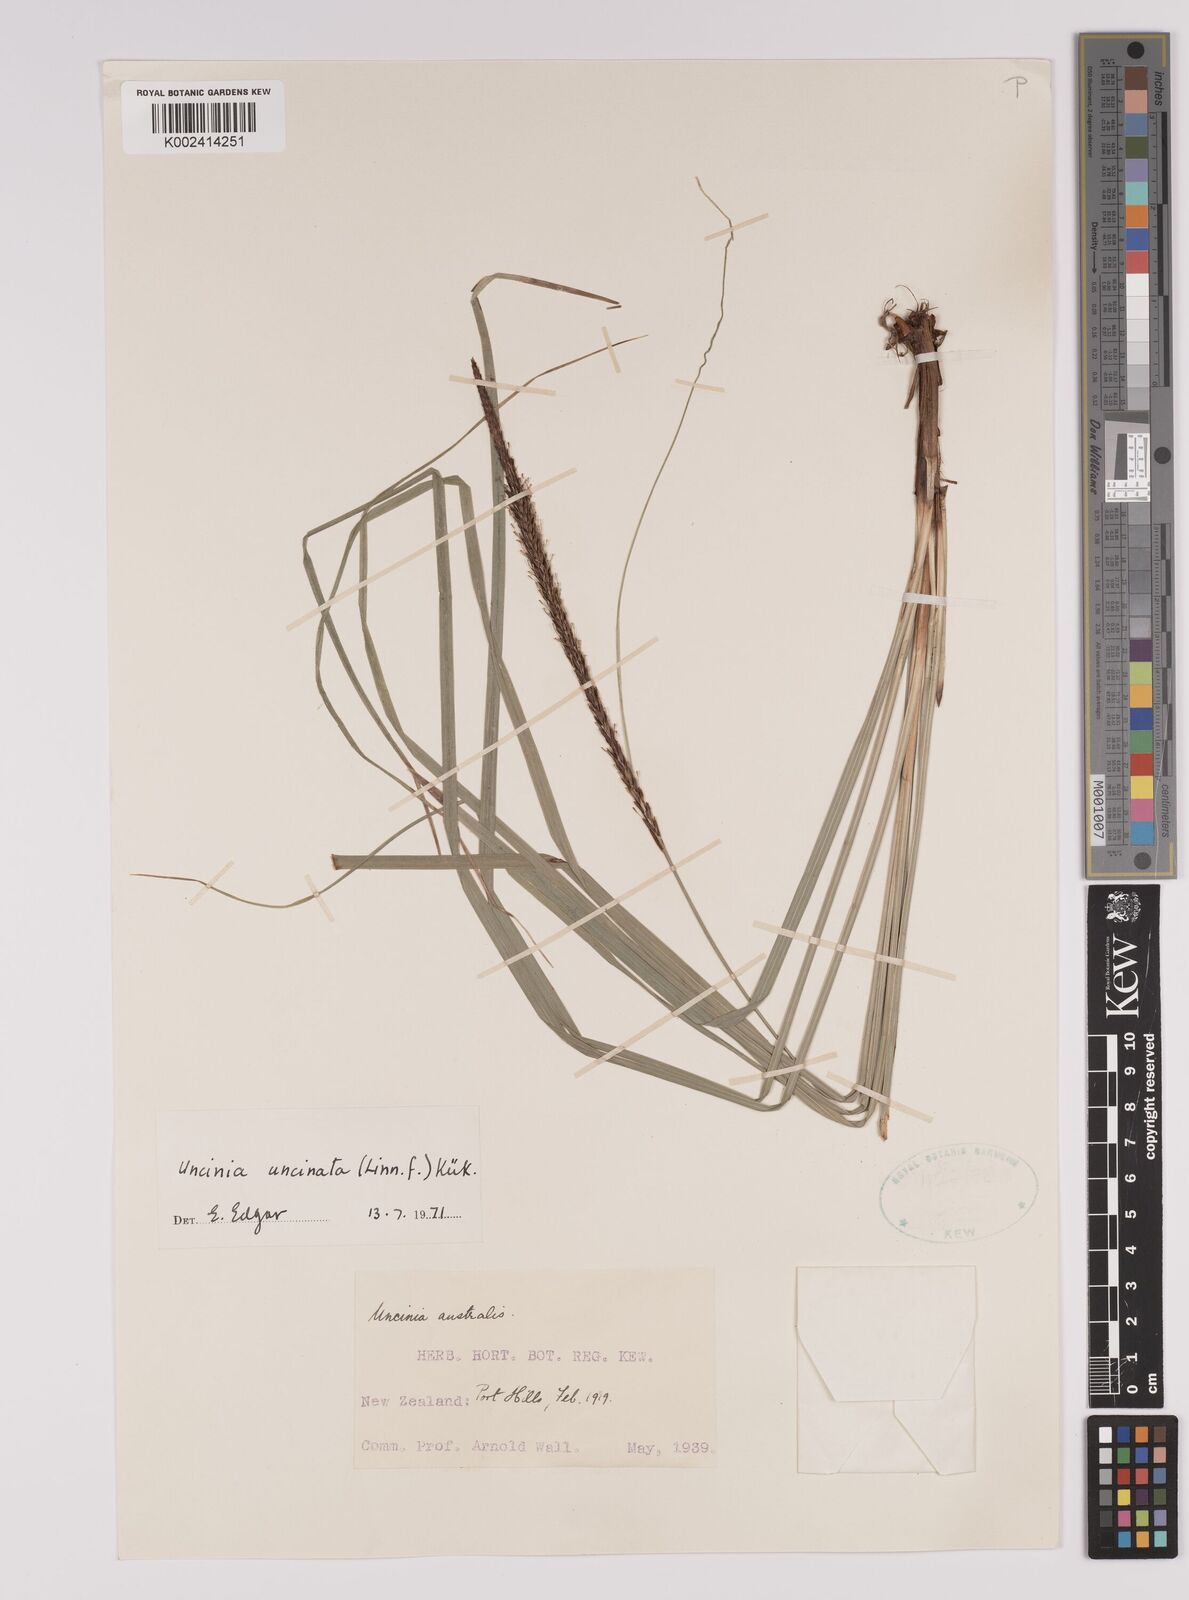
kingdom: Plantae
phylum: Tracheophyta
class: Liliopsida
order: Poales
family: Cyperaceae
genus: Carex
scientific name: Carex uncinata
